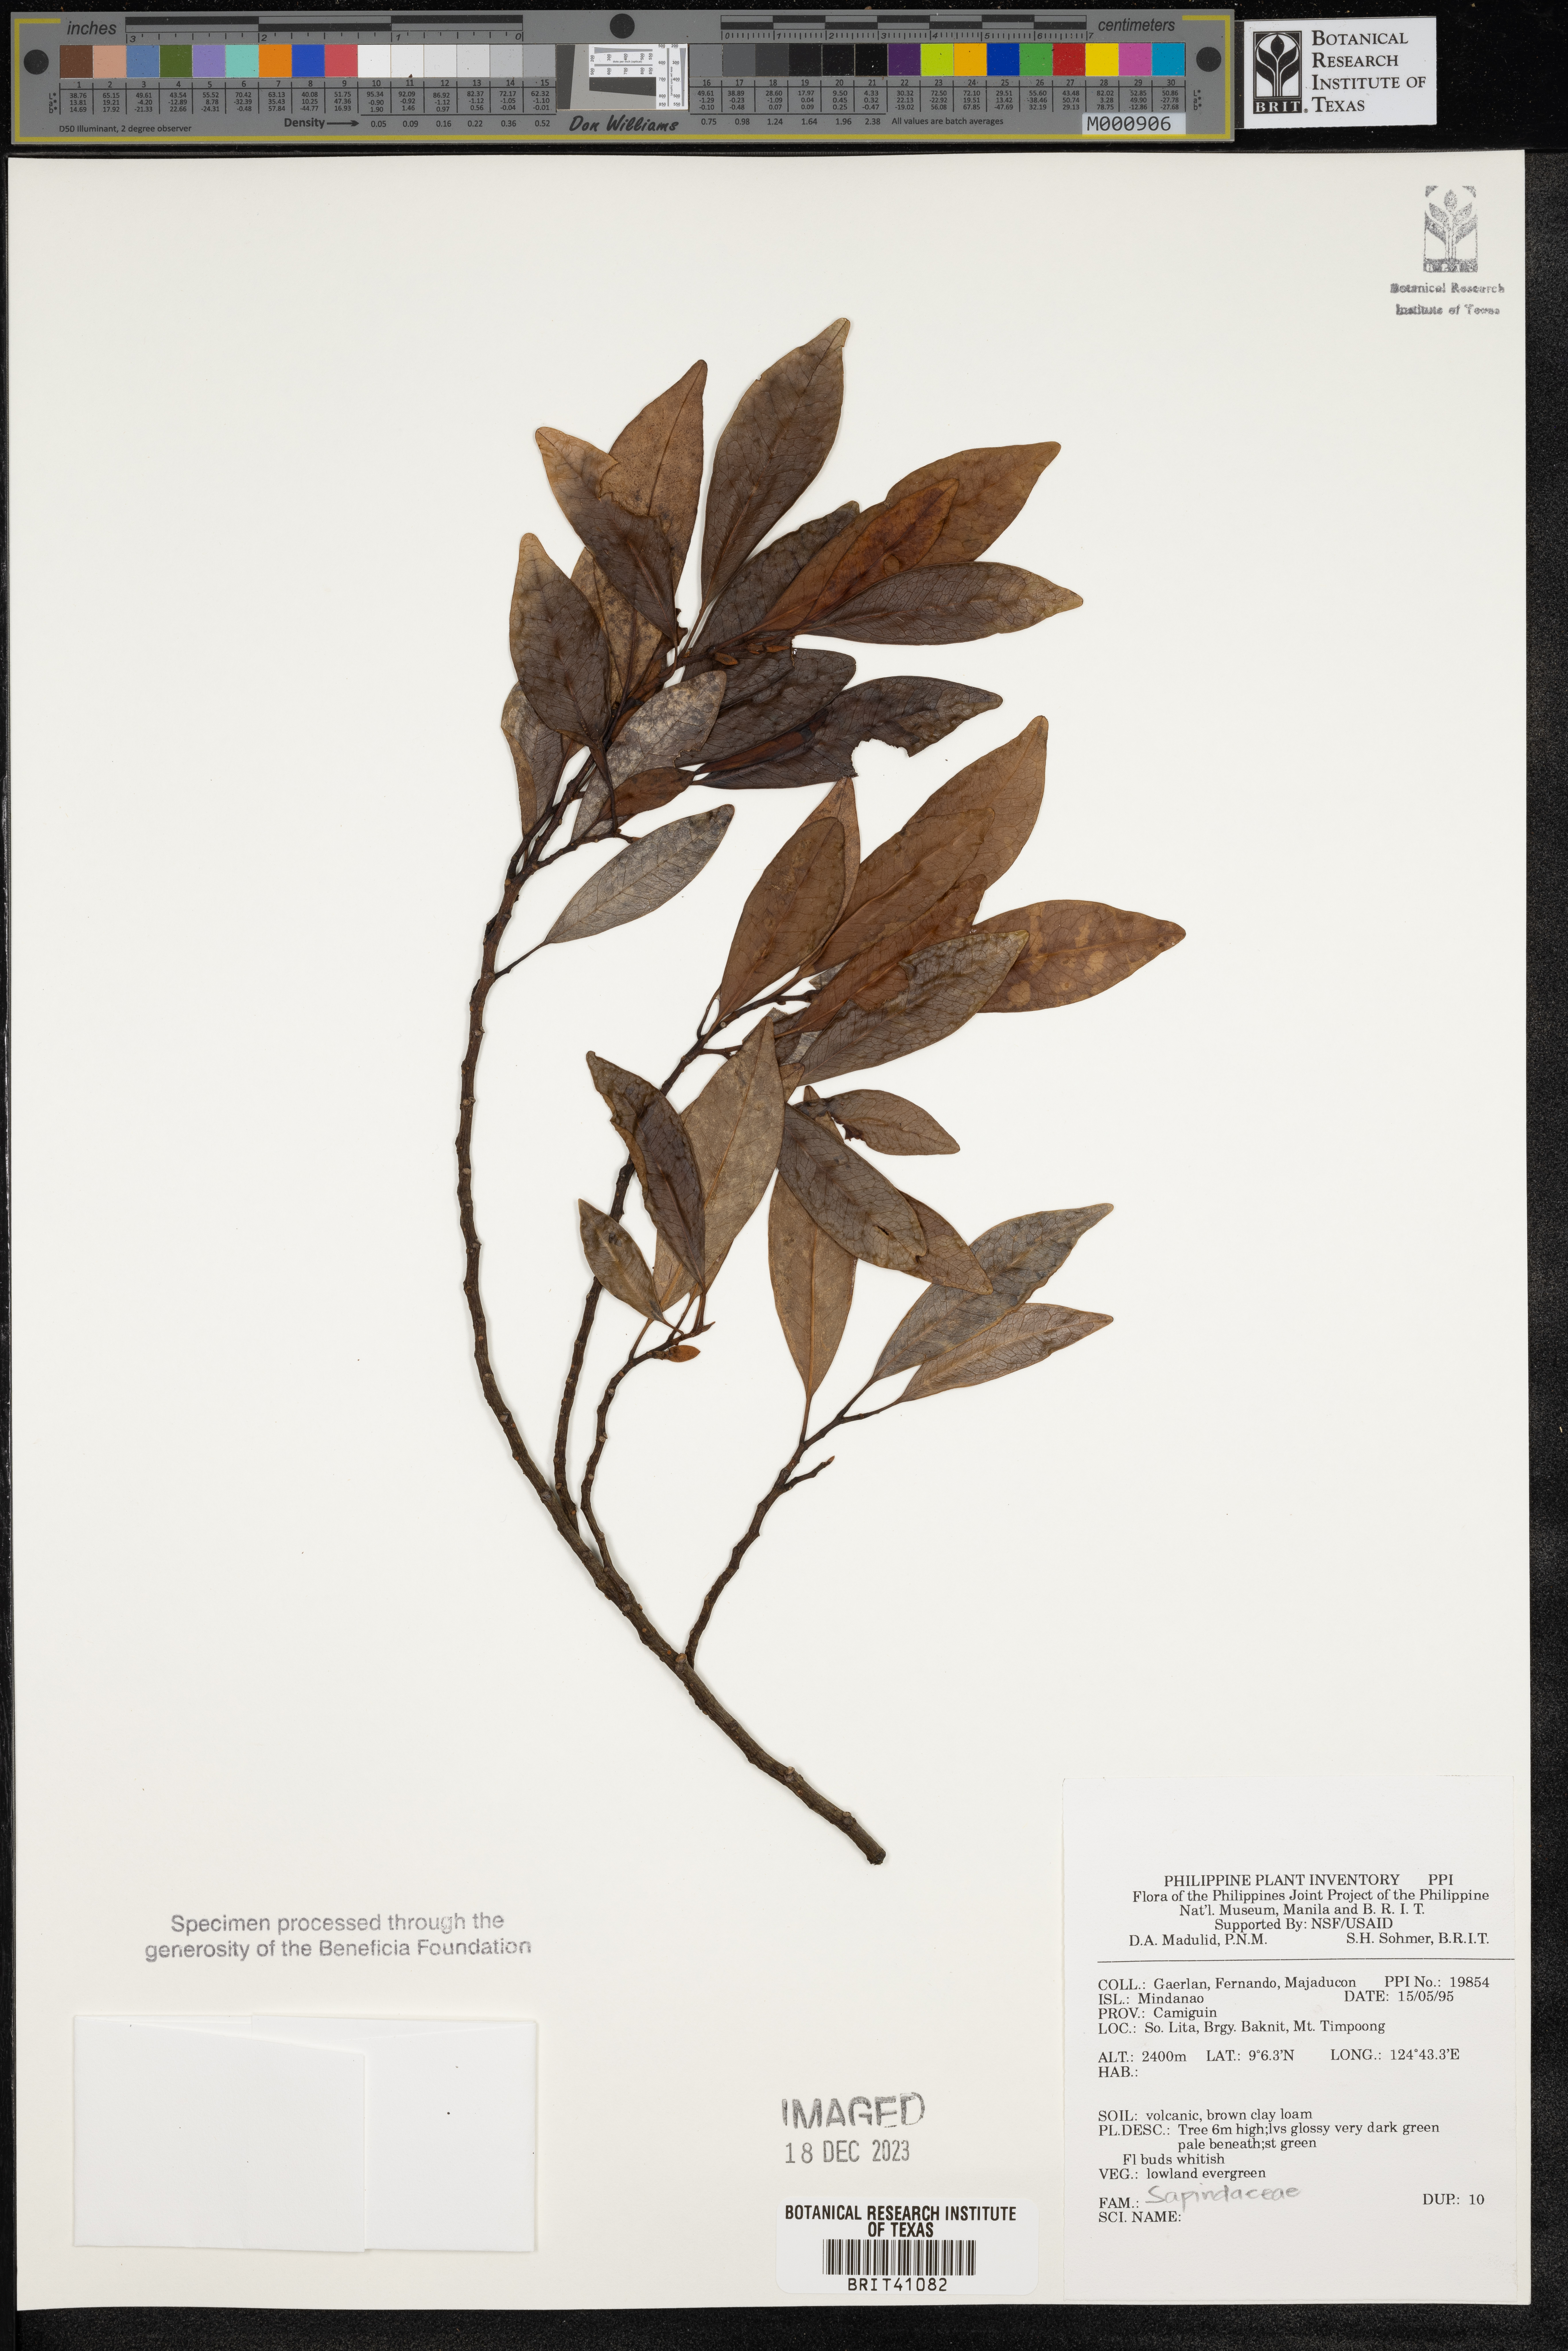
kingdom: Plantae
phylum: Tracheophyta
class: Magnoliopsida
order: Sapindales
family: Sapindaceae
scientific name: Sapindaceae
